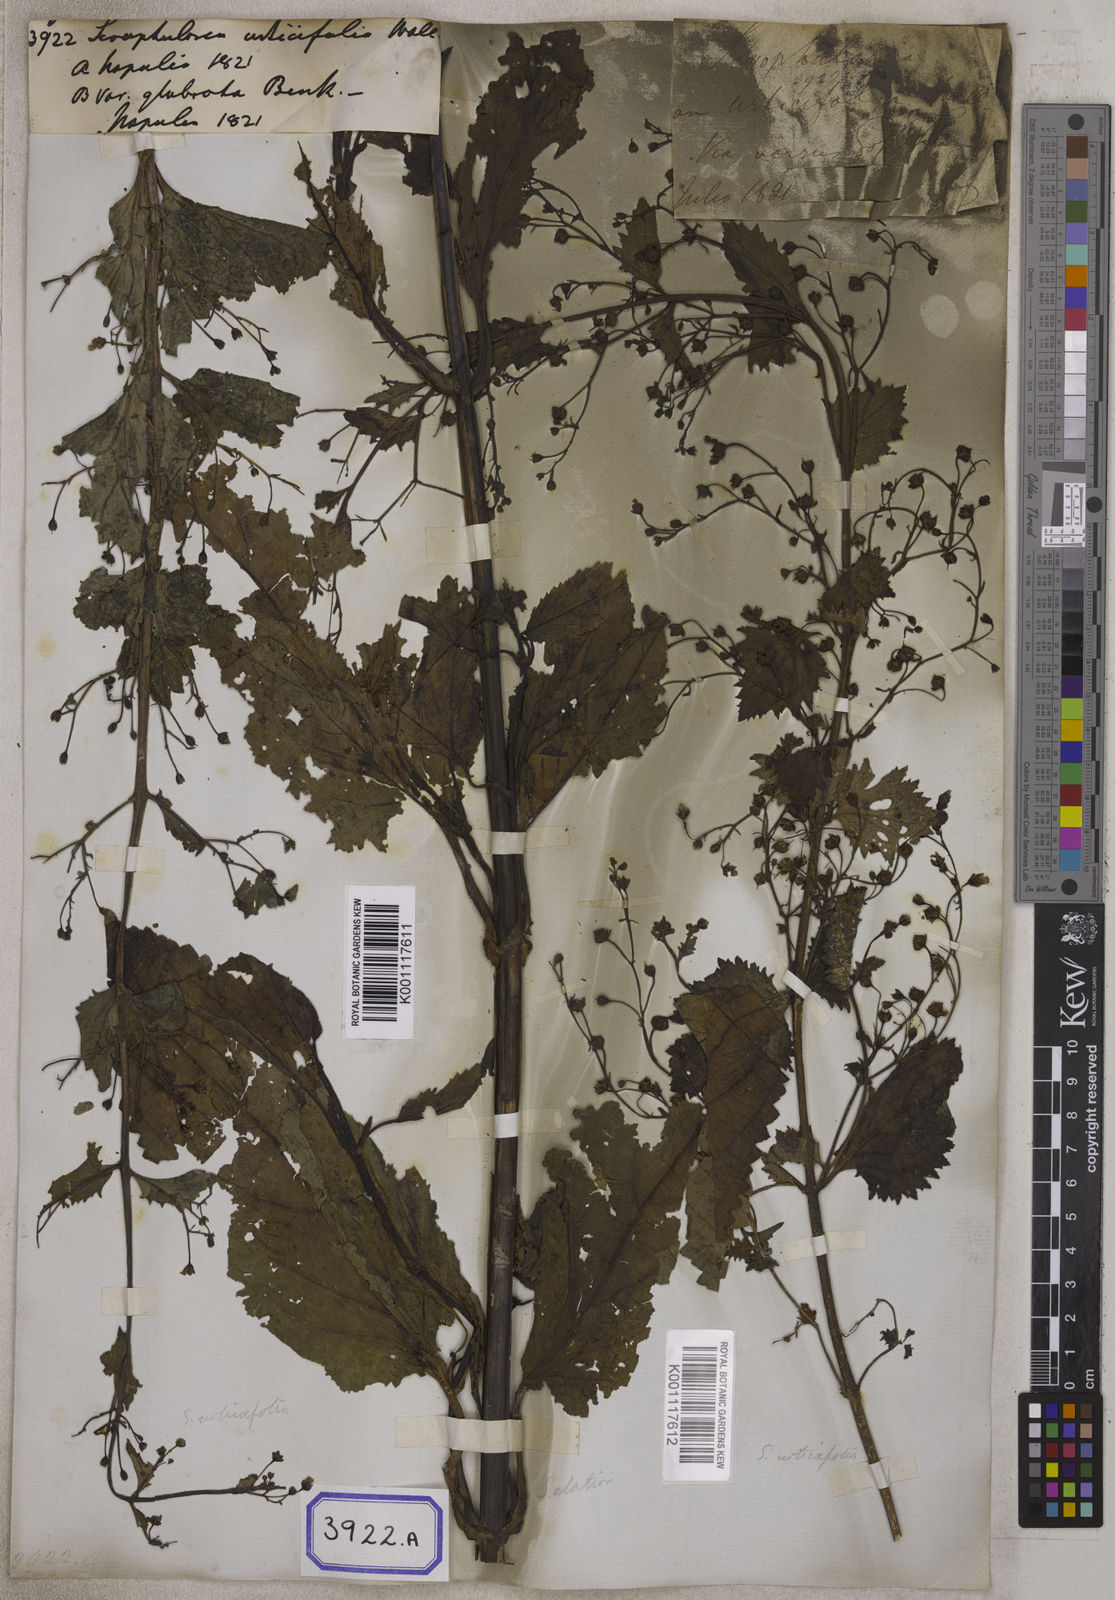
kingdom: Plantae
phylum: Tracheophyta
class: Magnoliopsida
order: Lamiales
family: Scrophulariaceae
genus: Scrophularia
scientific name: Scrophularia
